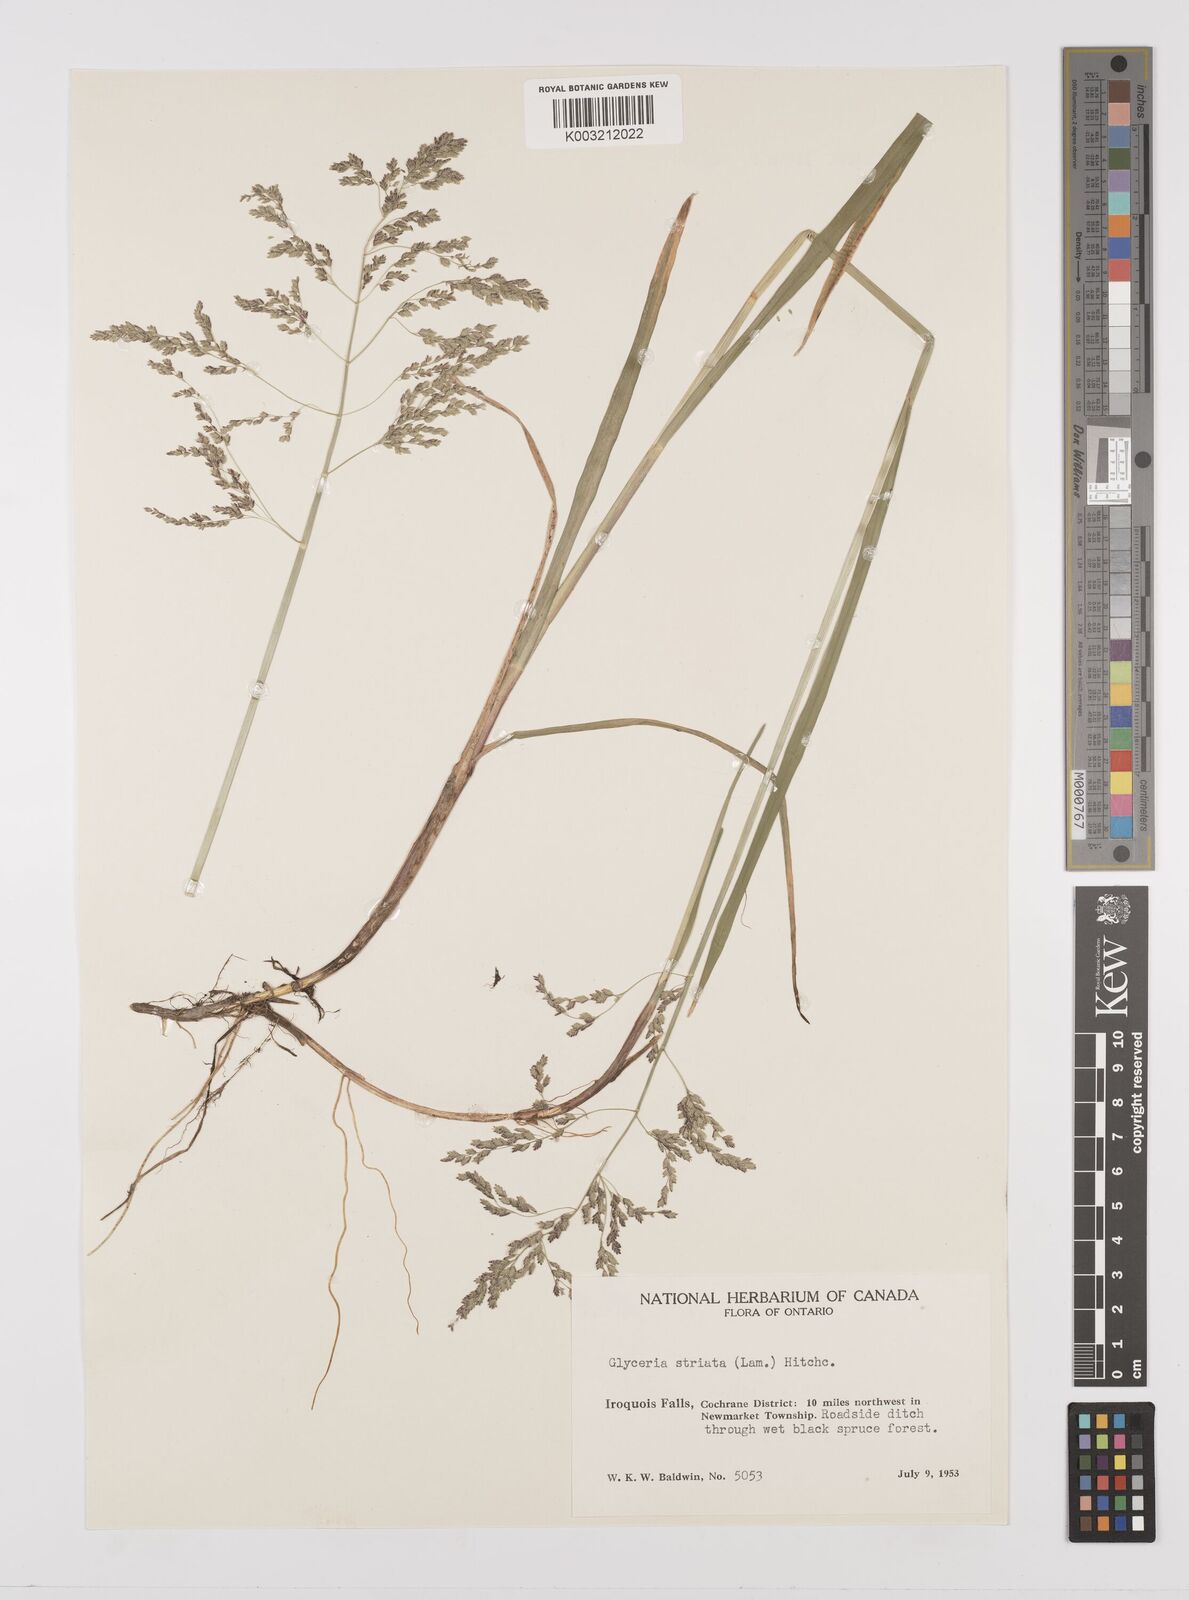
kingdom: Plantae
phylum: Tracheophyta
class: Liliopsida
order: Poales
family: Poaceae
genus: Glyceria
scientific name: Glyceria striata
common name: Fowl manna grass
